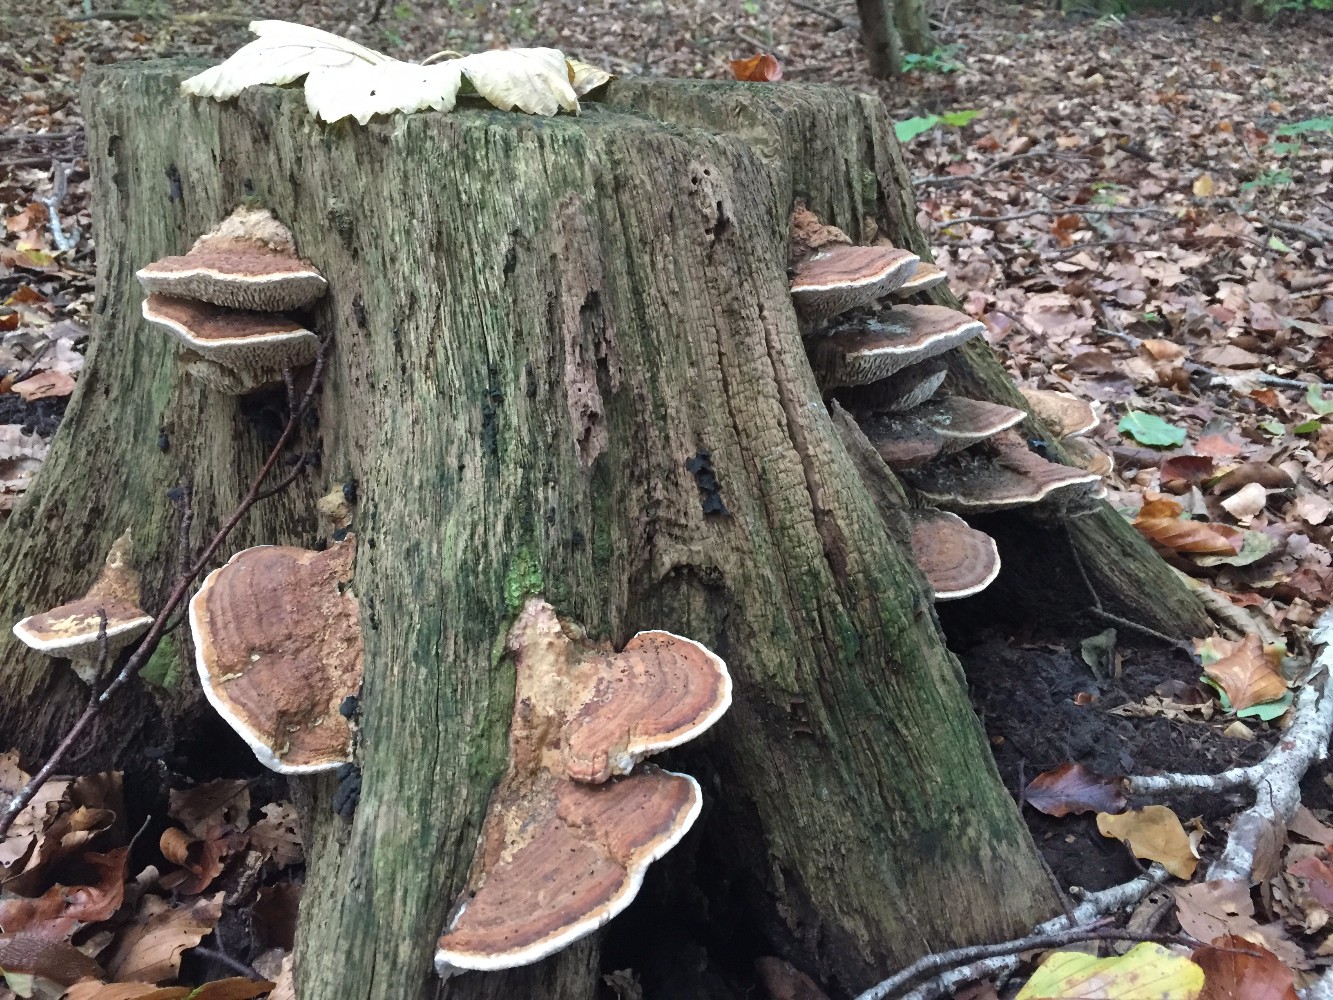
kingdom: Fungi
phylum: Basidiomycota
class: Agaricomycetes
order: Polyporales
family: Fomitopsidaceae
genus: Daedalea
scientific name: Daedalea quercina
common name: ege-labyrintsvamp
